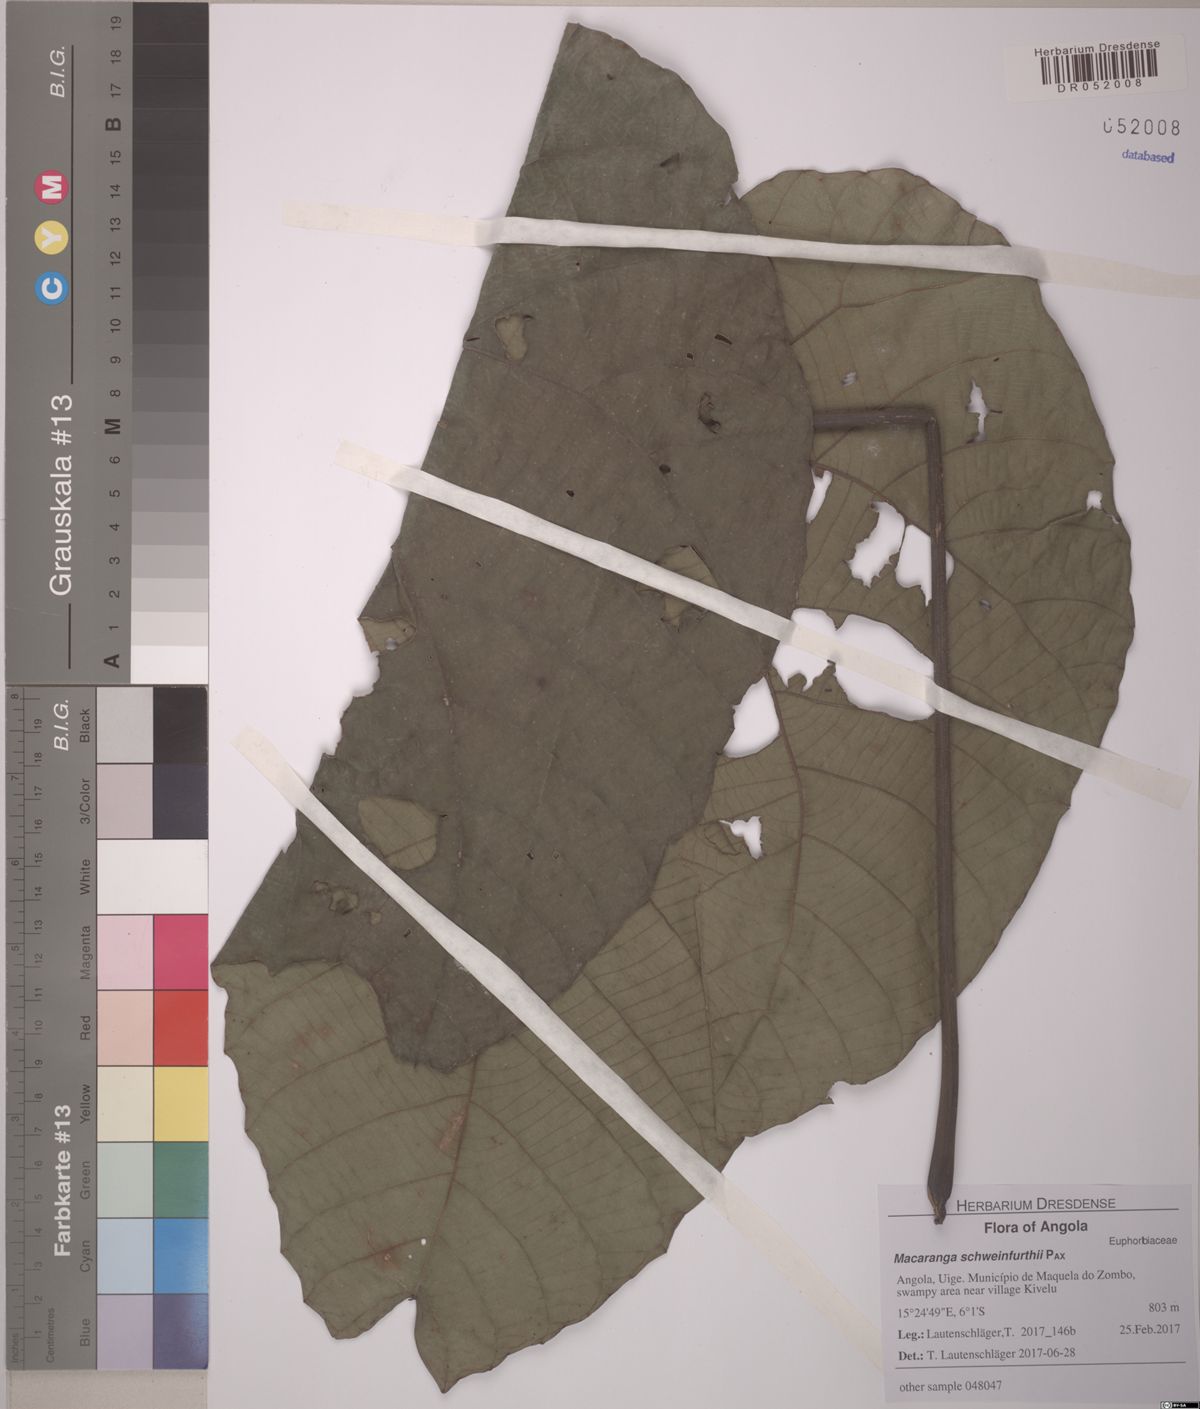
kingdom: Plantae
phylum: Tracheophyta
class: Magnoliopsida
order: Malpighiales
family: Euphorbiaceae
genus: Macaranga
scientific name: Macaranga schweinfurthii
